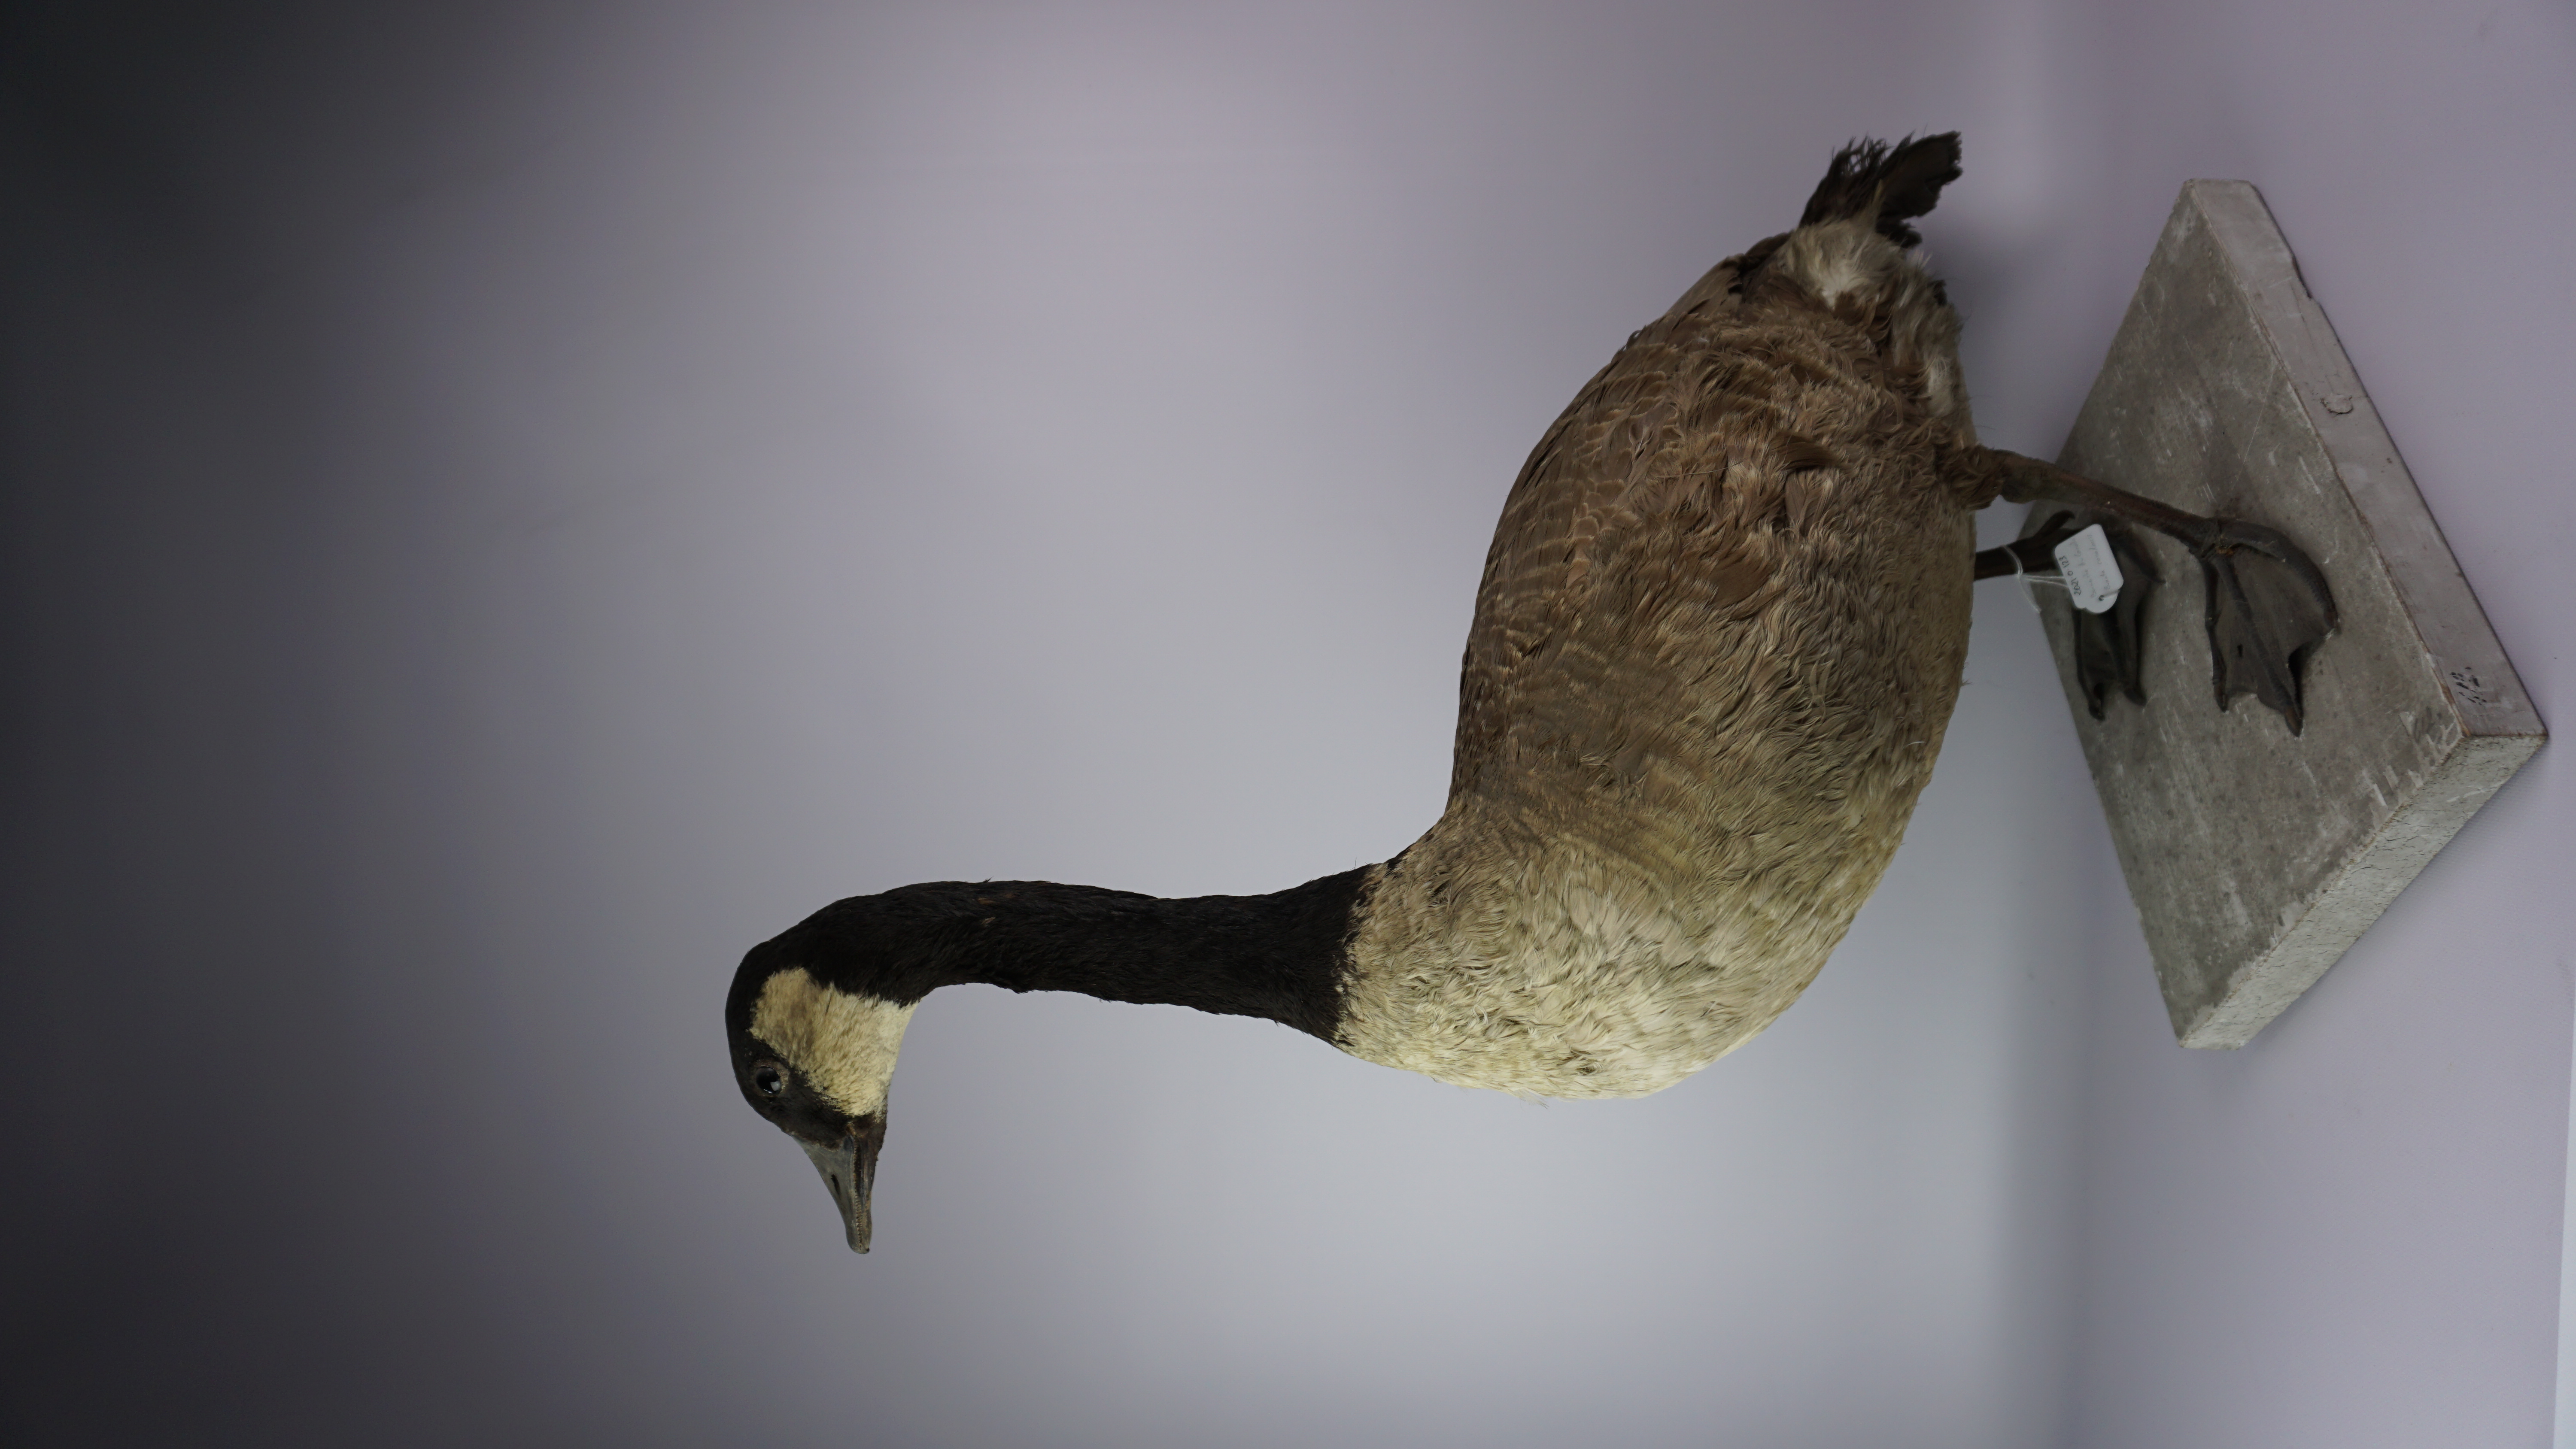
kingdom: Animalia
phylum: Chordata
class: Aves
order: Anseriformes
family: Anatidae
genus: Branta
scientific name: Branta canadensis
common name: Canada goose
